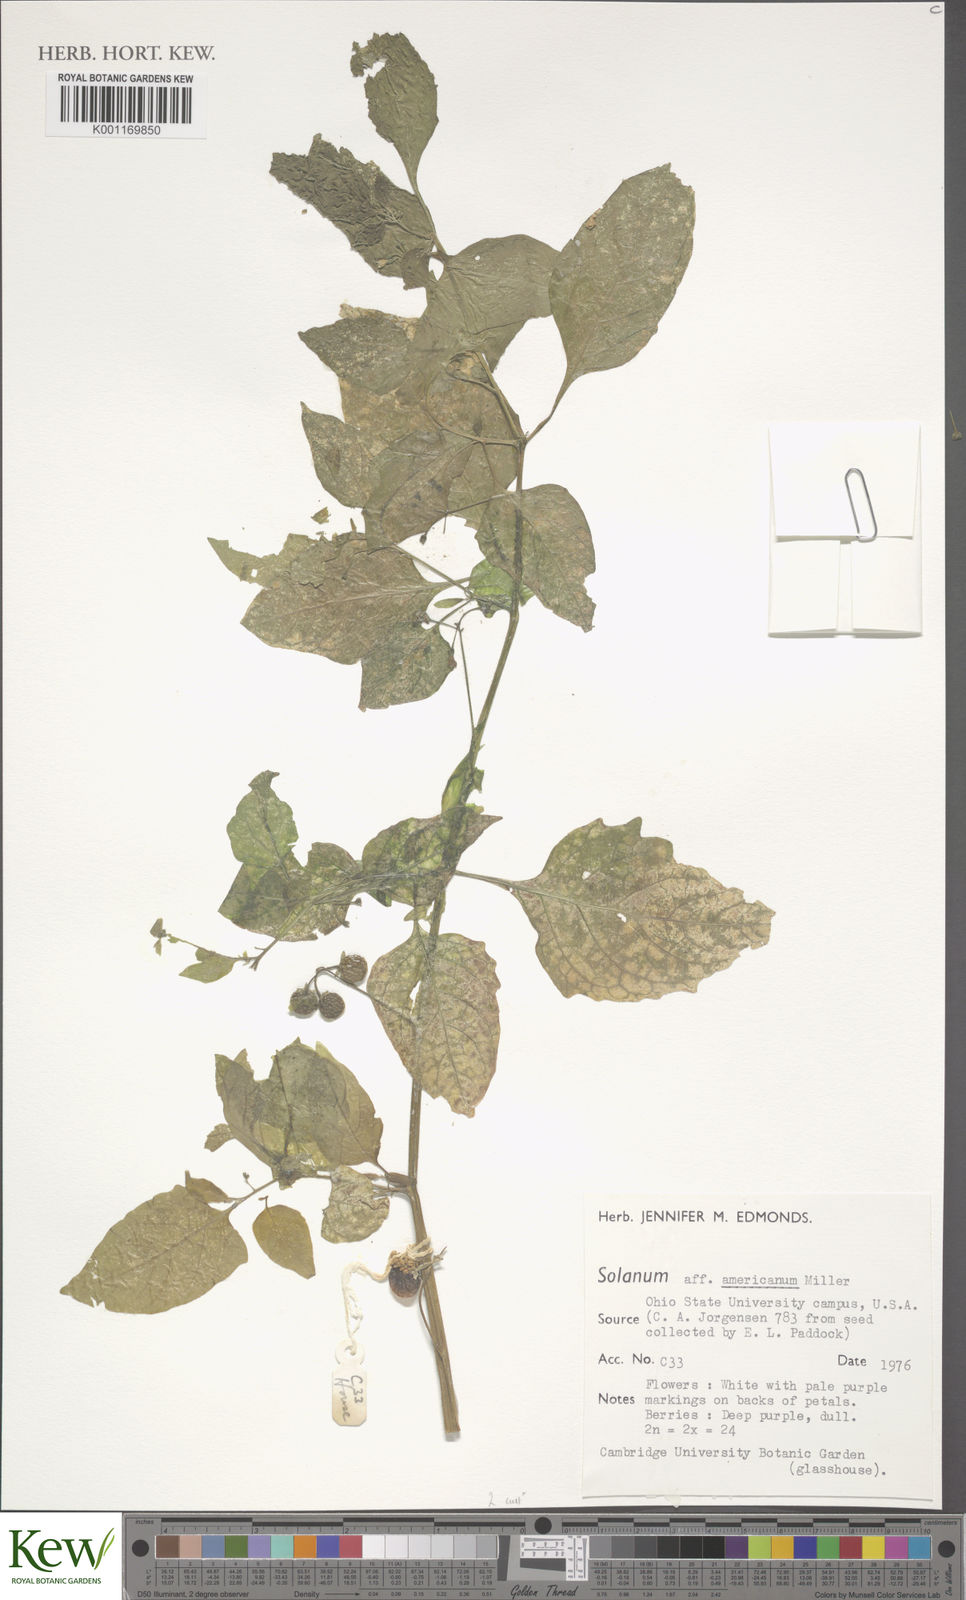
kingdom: Plantae
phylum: Tracheophyta
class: Magnoliopsida
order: Solanales
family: Solanaceae
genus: Solanum
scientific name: Solanum americanum
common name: American black nightshade
